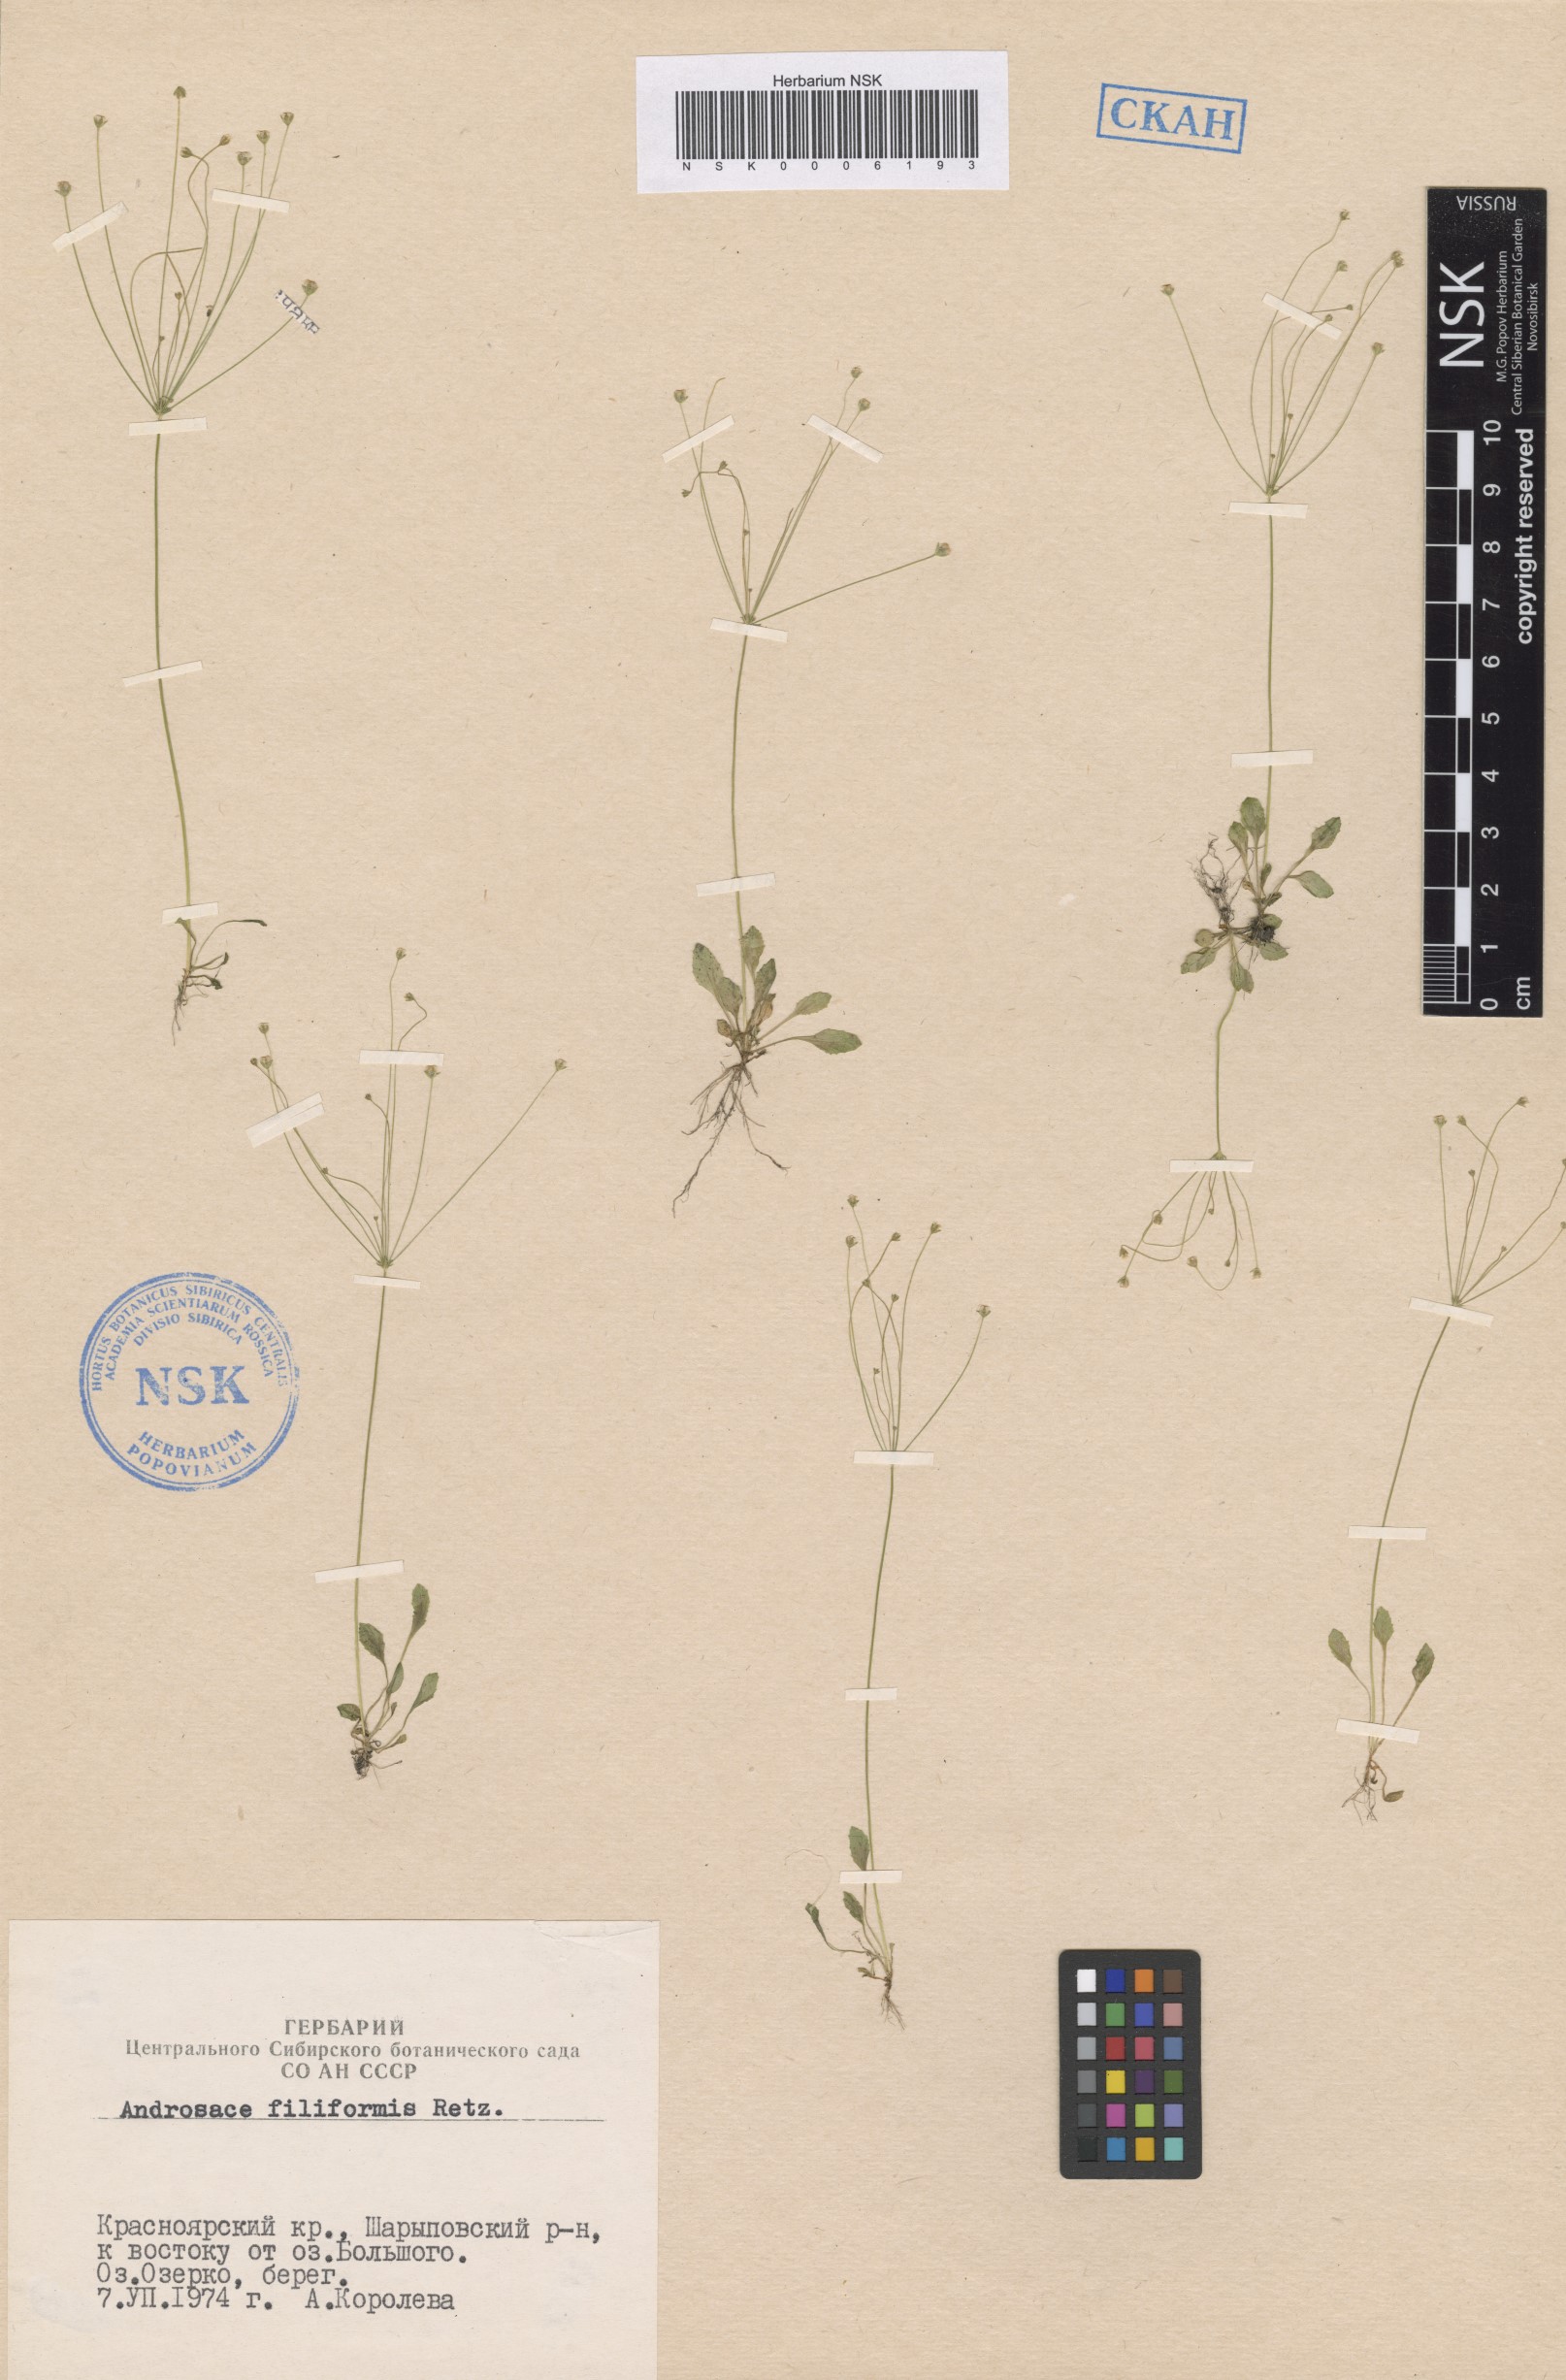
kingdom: Plantae
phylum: Tracheophyta
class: Magnoliopsida
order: Ericales
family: Primulaceae
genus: Androsace
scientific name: Androsace filiformis
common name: Filiform rock jasmine
